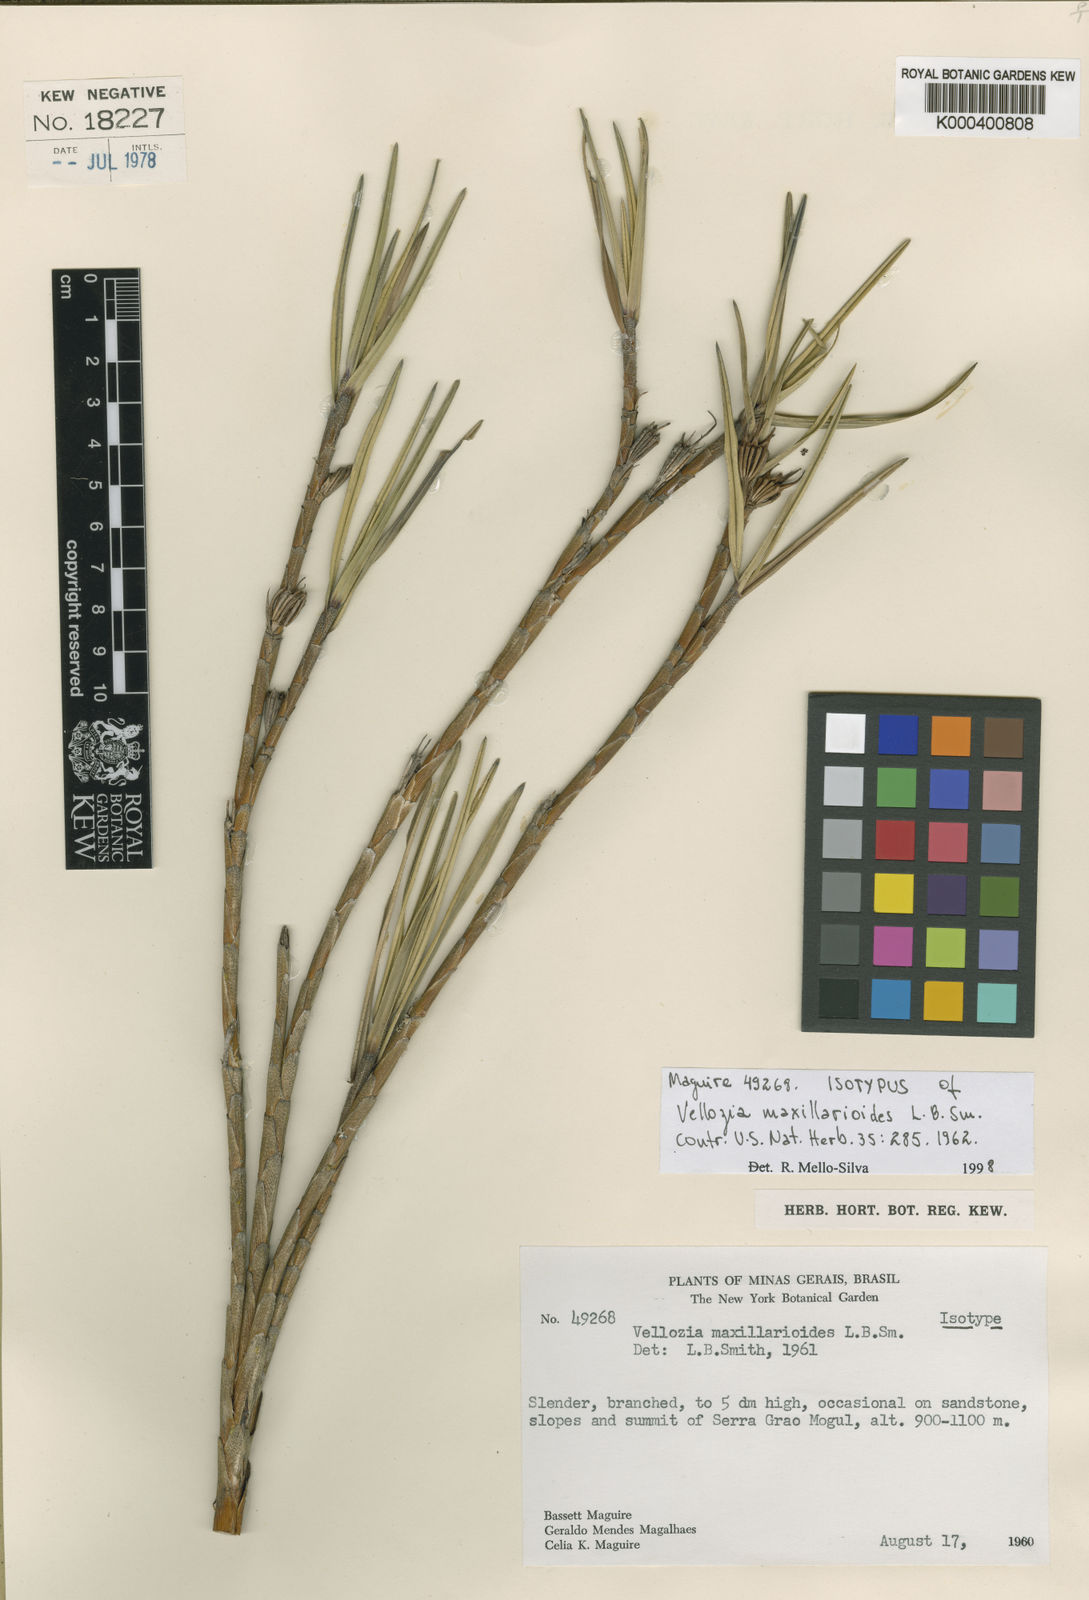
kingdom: Plantae
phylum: Tracheophyta
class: Liliopsida
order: Pandanales
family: Velloziaceae
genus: Vellozia
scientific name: Vellozia maxillarioides
